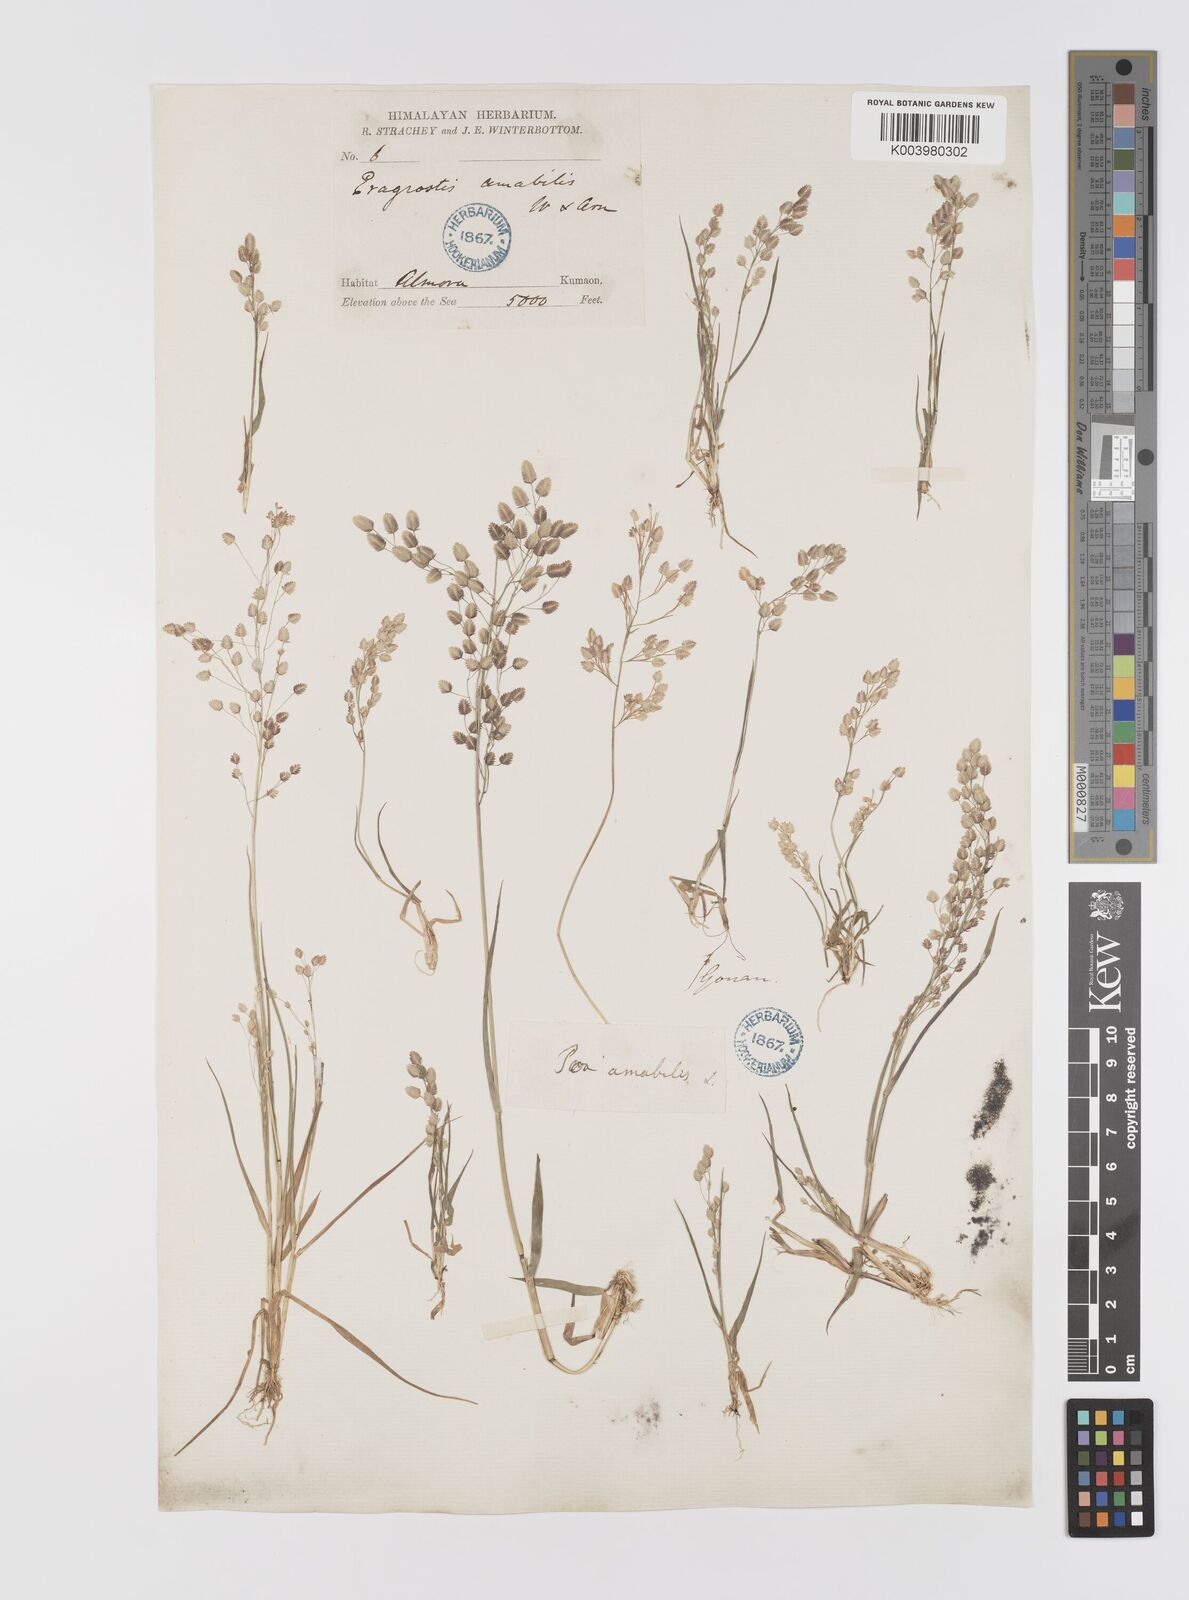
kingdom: Plantae
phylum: Tracheophyta
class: Liliopsida
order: Poales
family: Poaceae
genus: Eragrostis
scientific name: Eragrostis viscosa
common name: Sticky love grass
